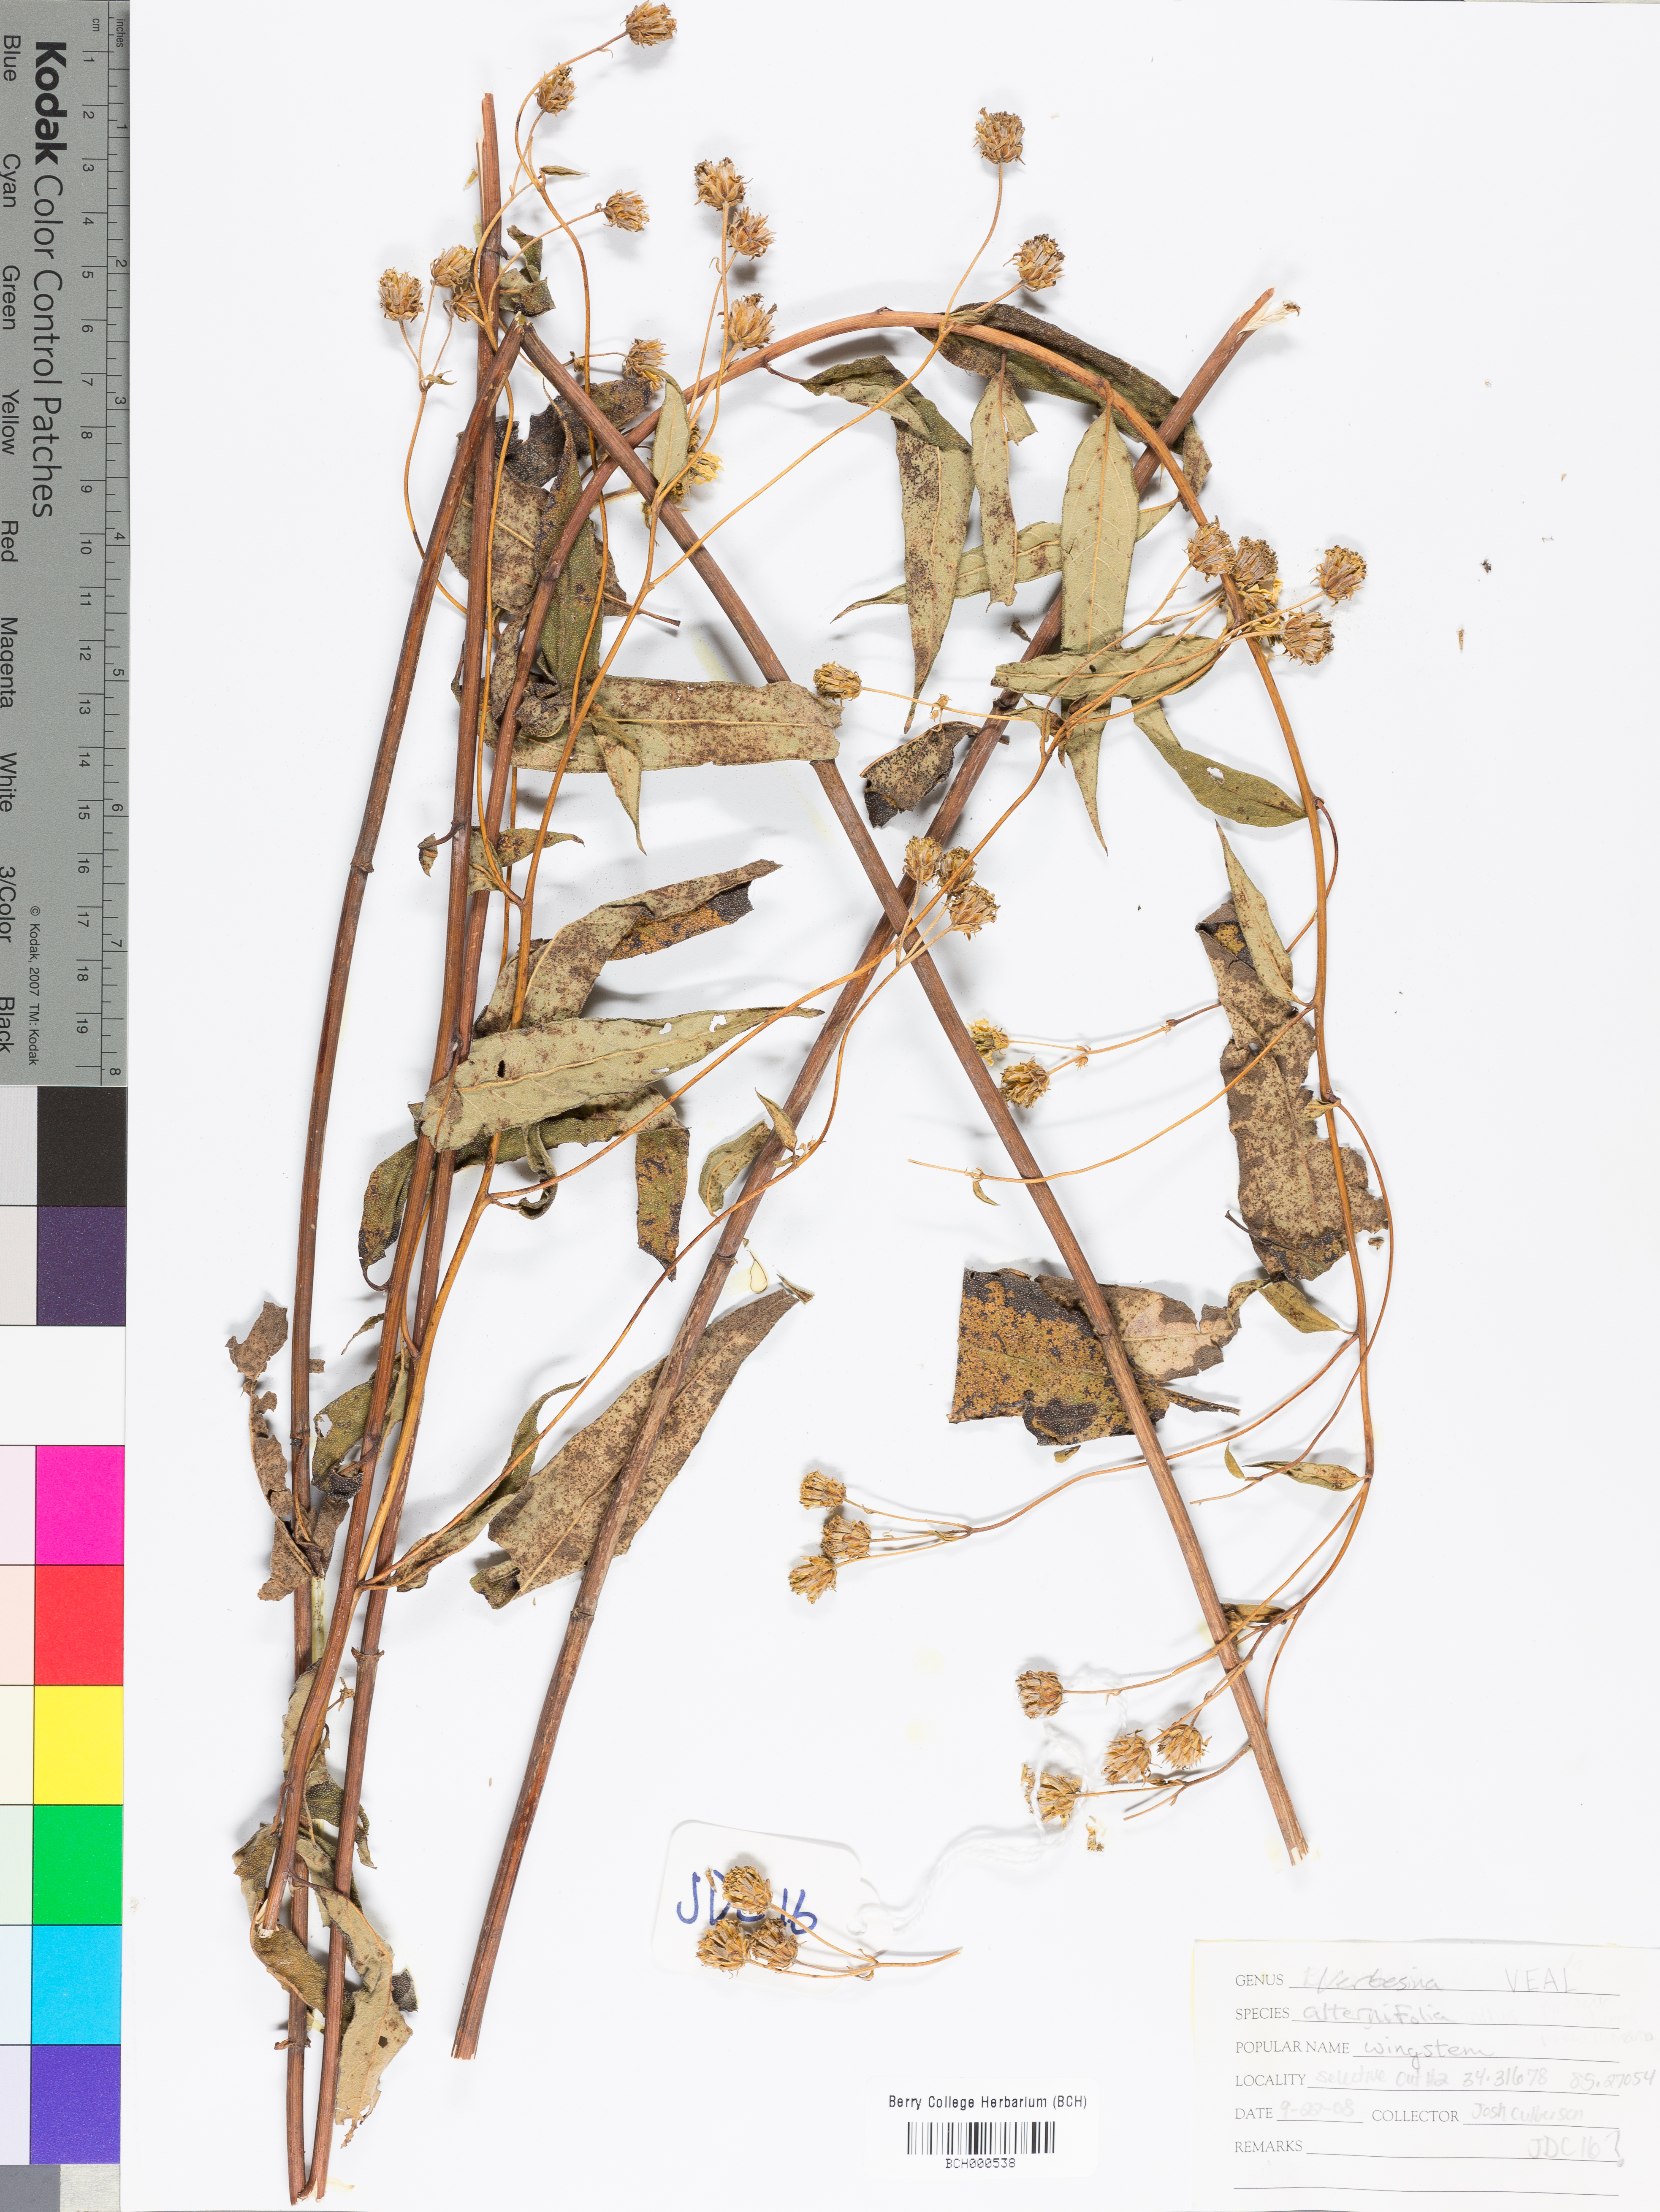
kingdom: Plantae
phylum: Tracheophyta
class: Magnoliopsida
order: Asterales
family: Asteraceae
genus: Verbesina
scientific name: Verbesina alternifolia
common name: Wingstem
